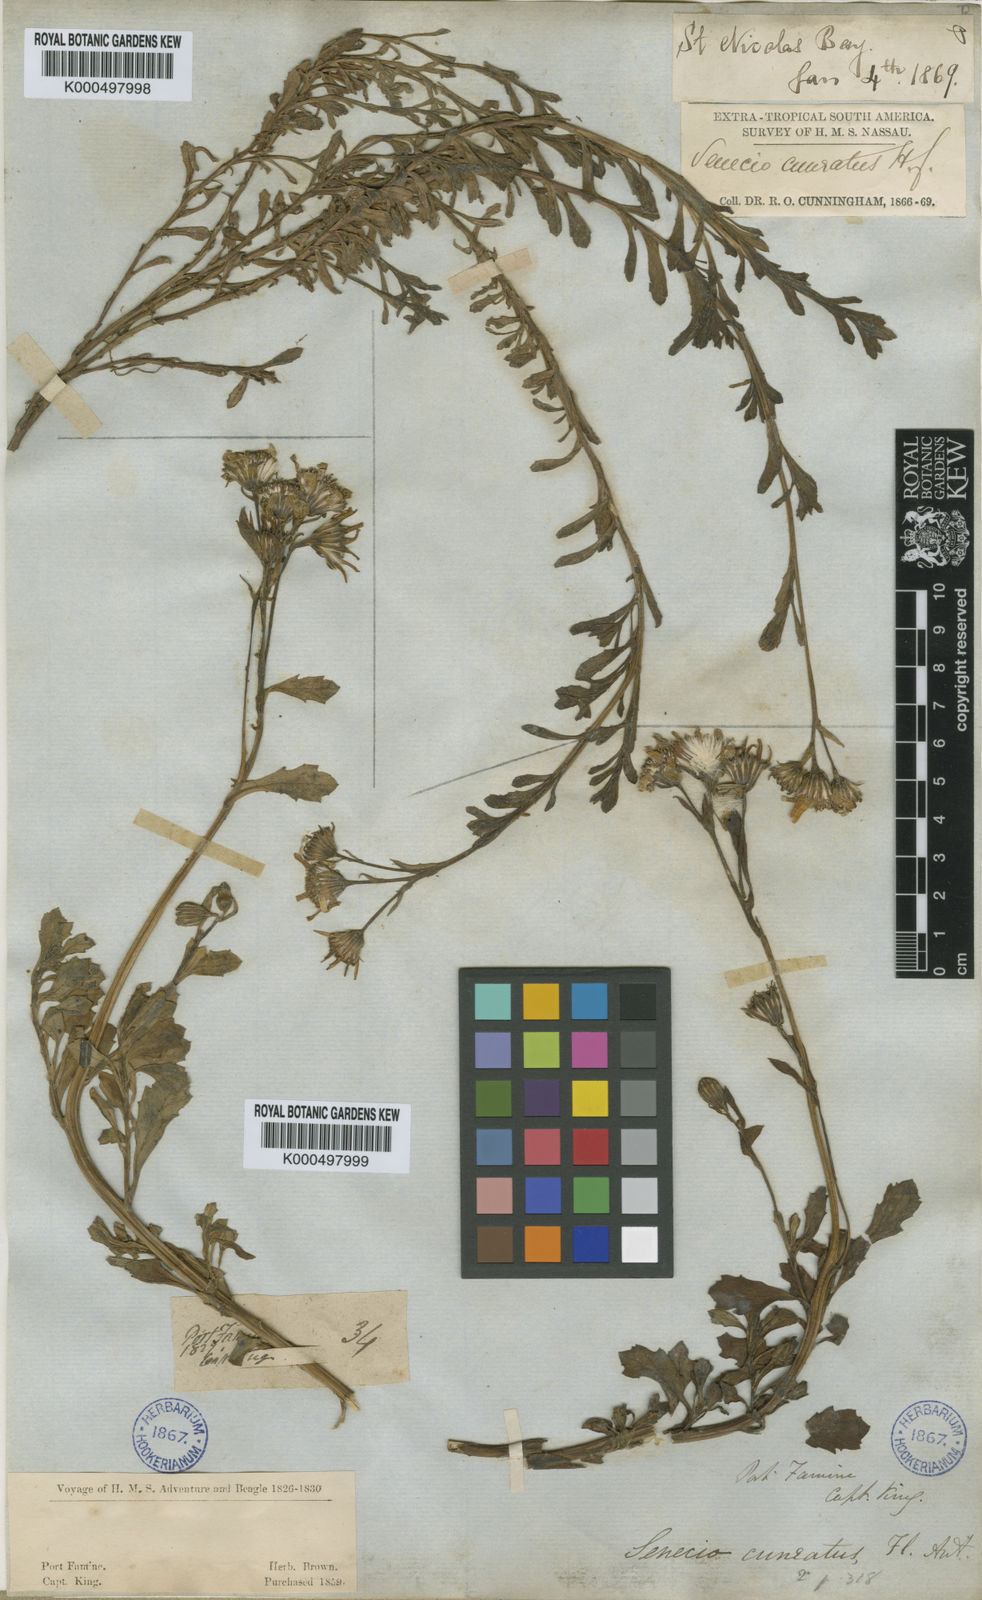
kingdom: Plantae
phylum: Tracheophyta
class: Magnoliopsida
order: Asterales
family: Asteraceae
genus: Senecio
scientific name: Senecio cuneatus
